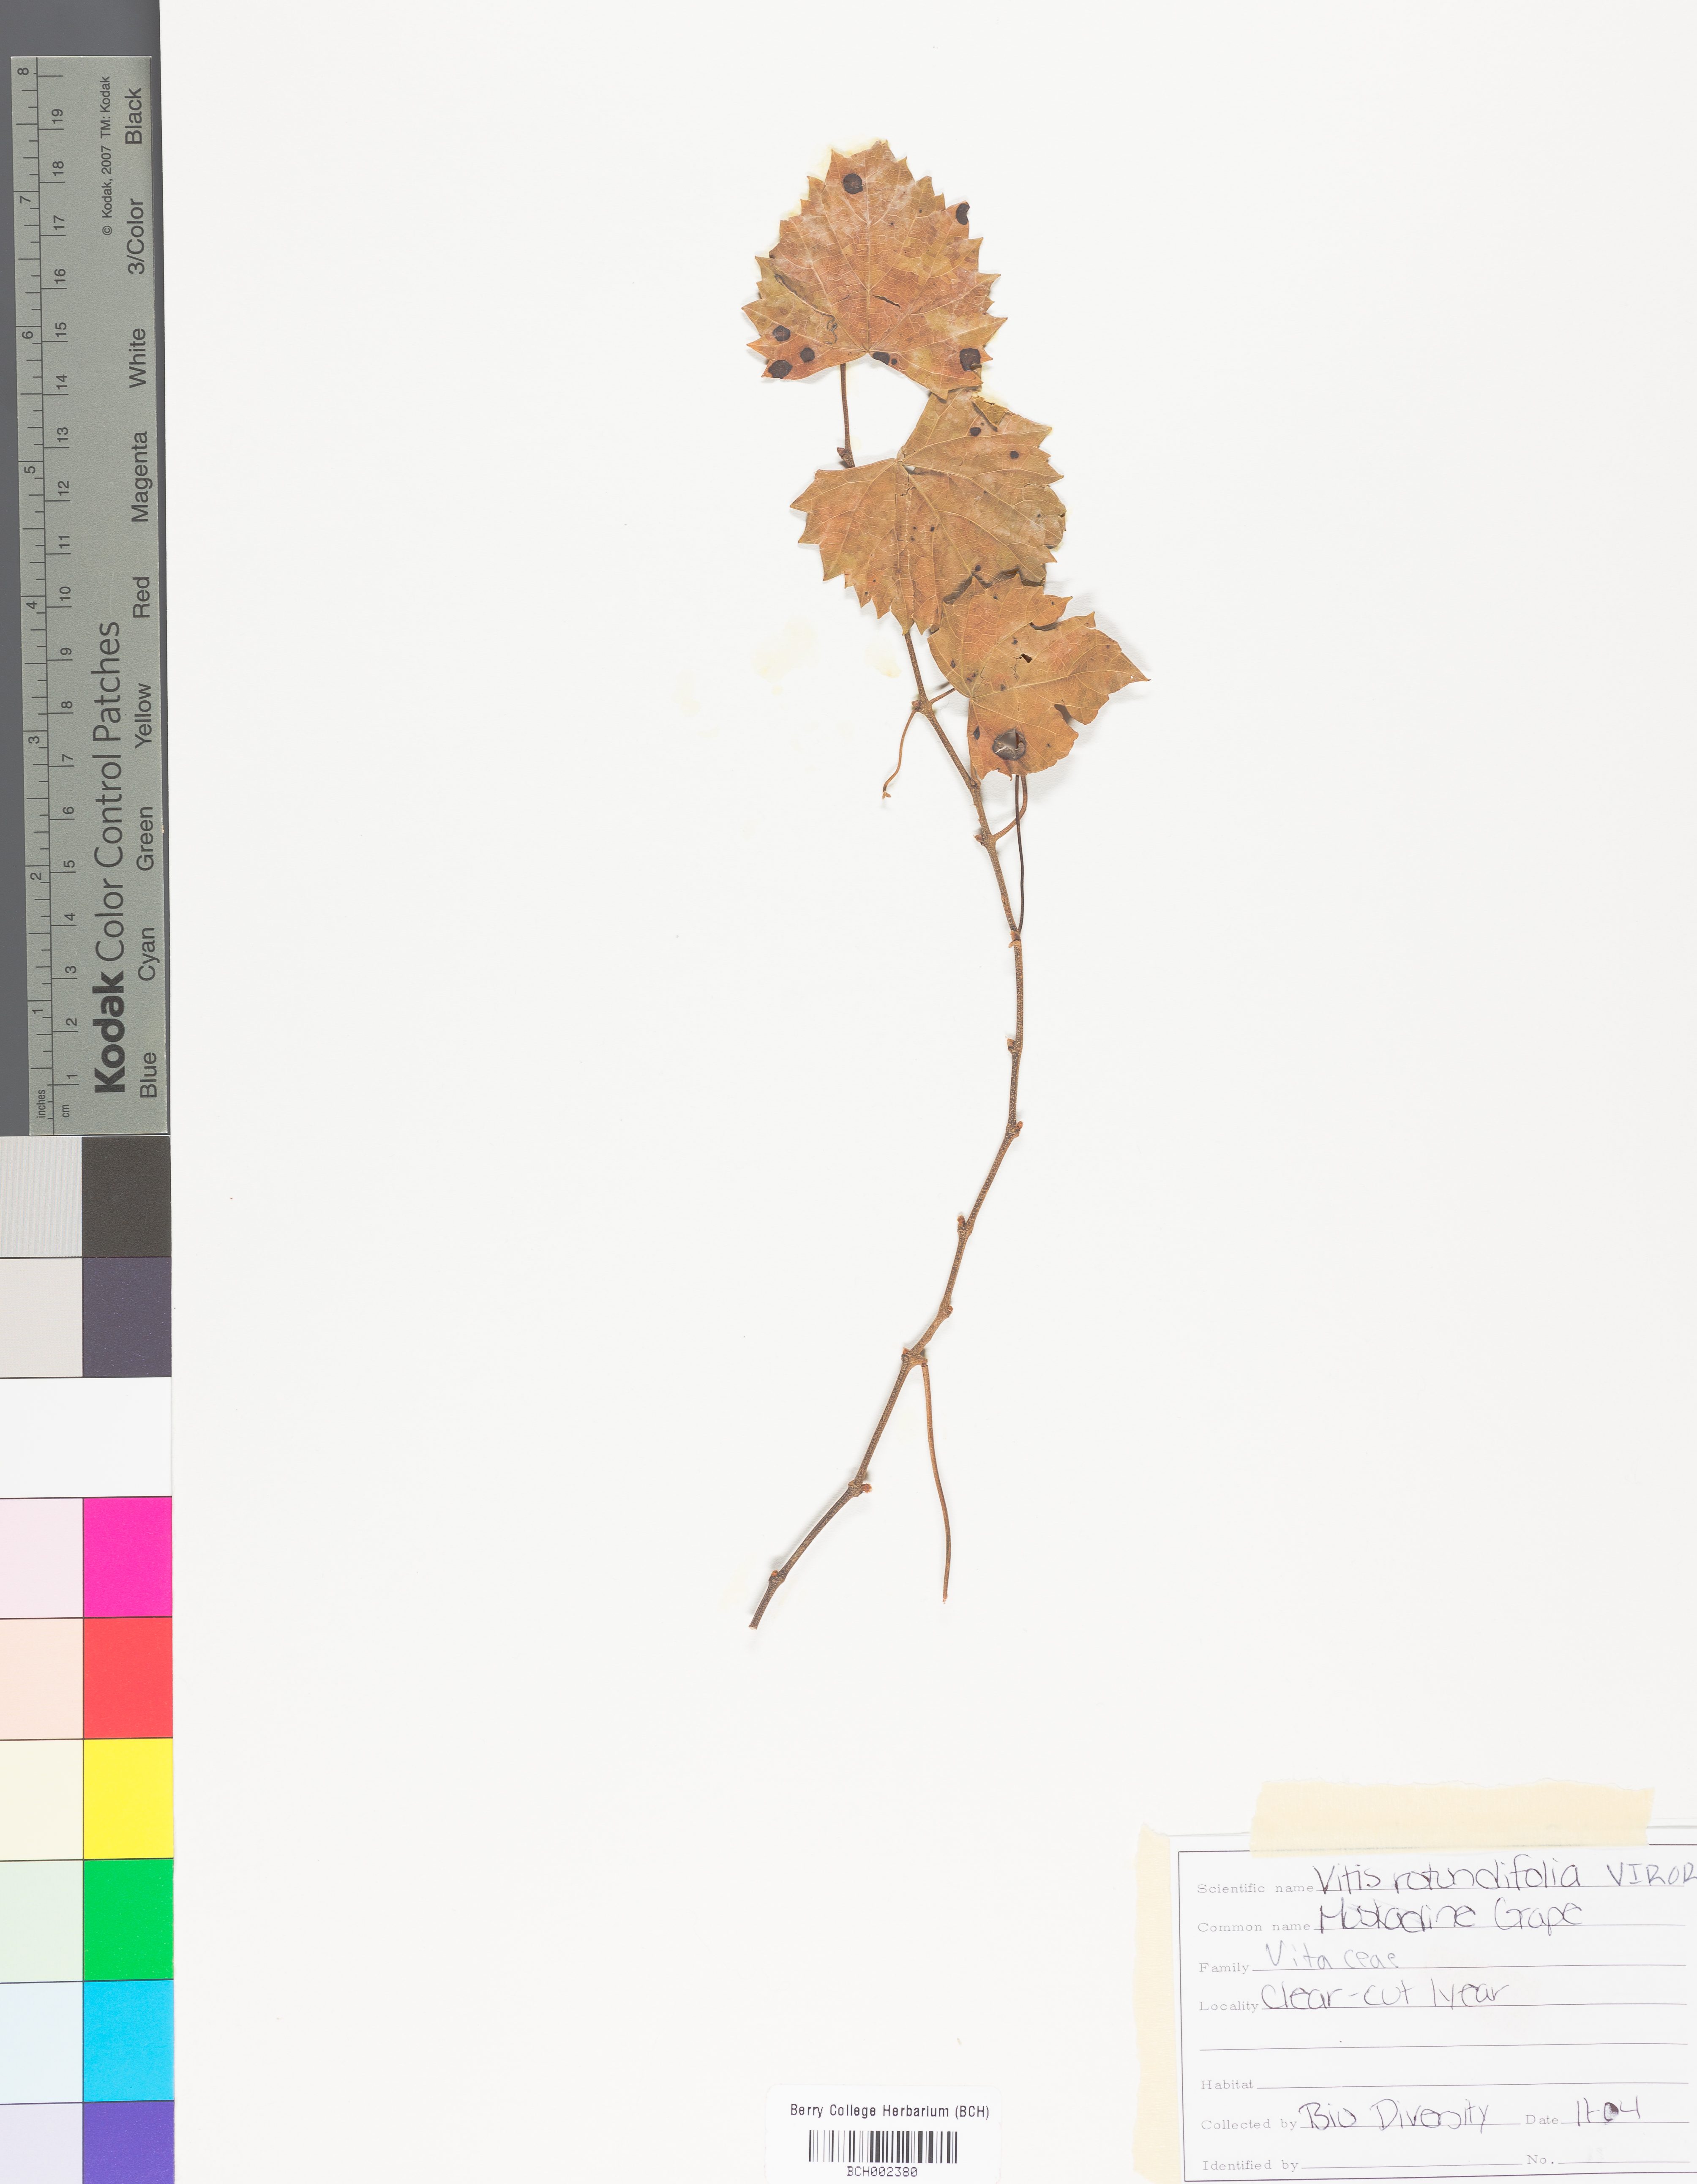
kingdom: Plantae
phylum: Tracheophyta
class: Magnoliopsida
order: Vitales
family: Vitaceae
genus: Vitis
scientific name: Vitis rotundifolia
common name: Muscadine grape
